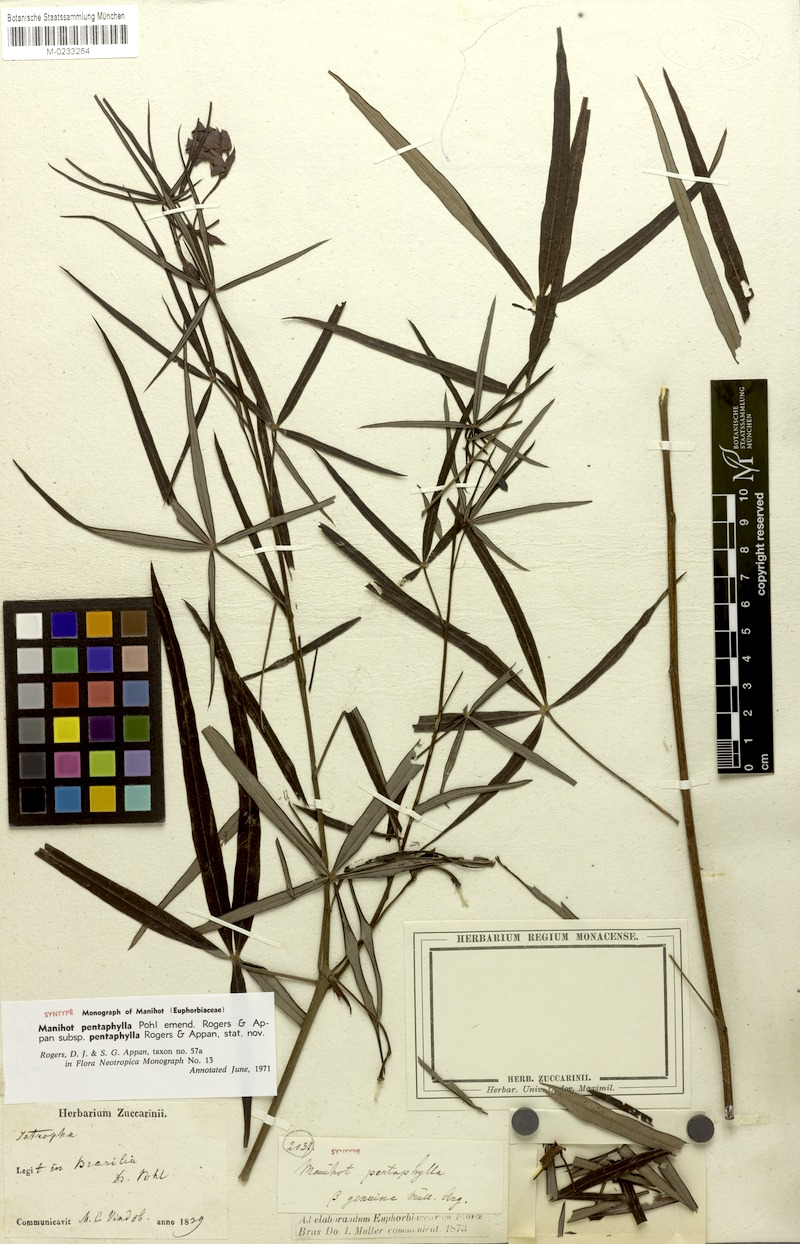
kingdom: Plantae
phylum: Tracheophyta
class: Magnoliopsida
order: Malpighiales
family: Euphorbiaceae
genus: Manihot
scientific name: Manihot pentaphylla
